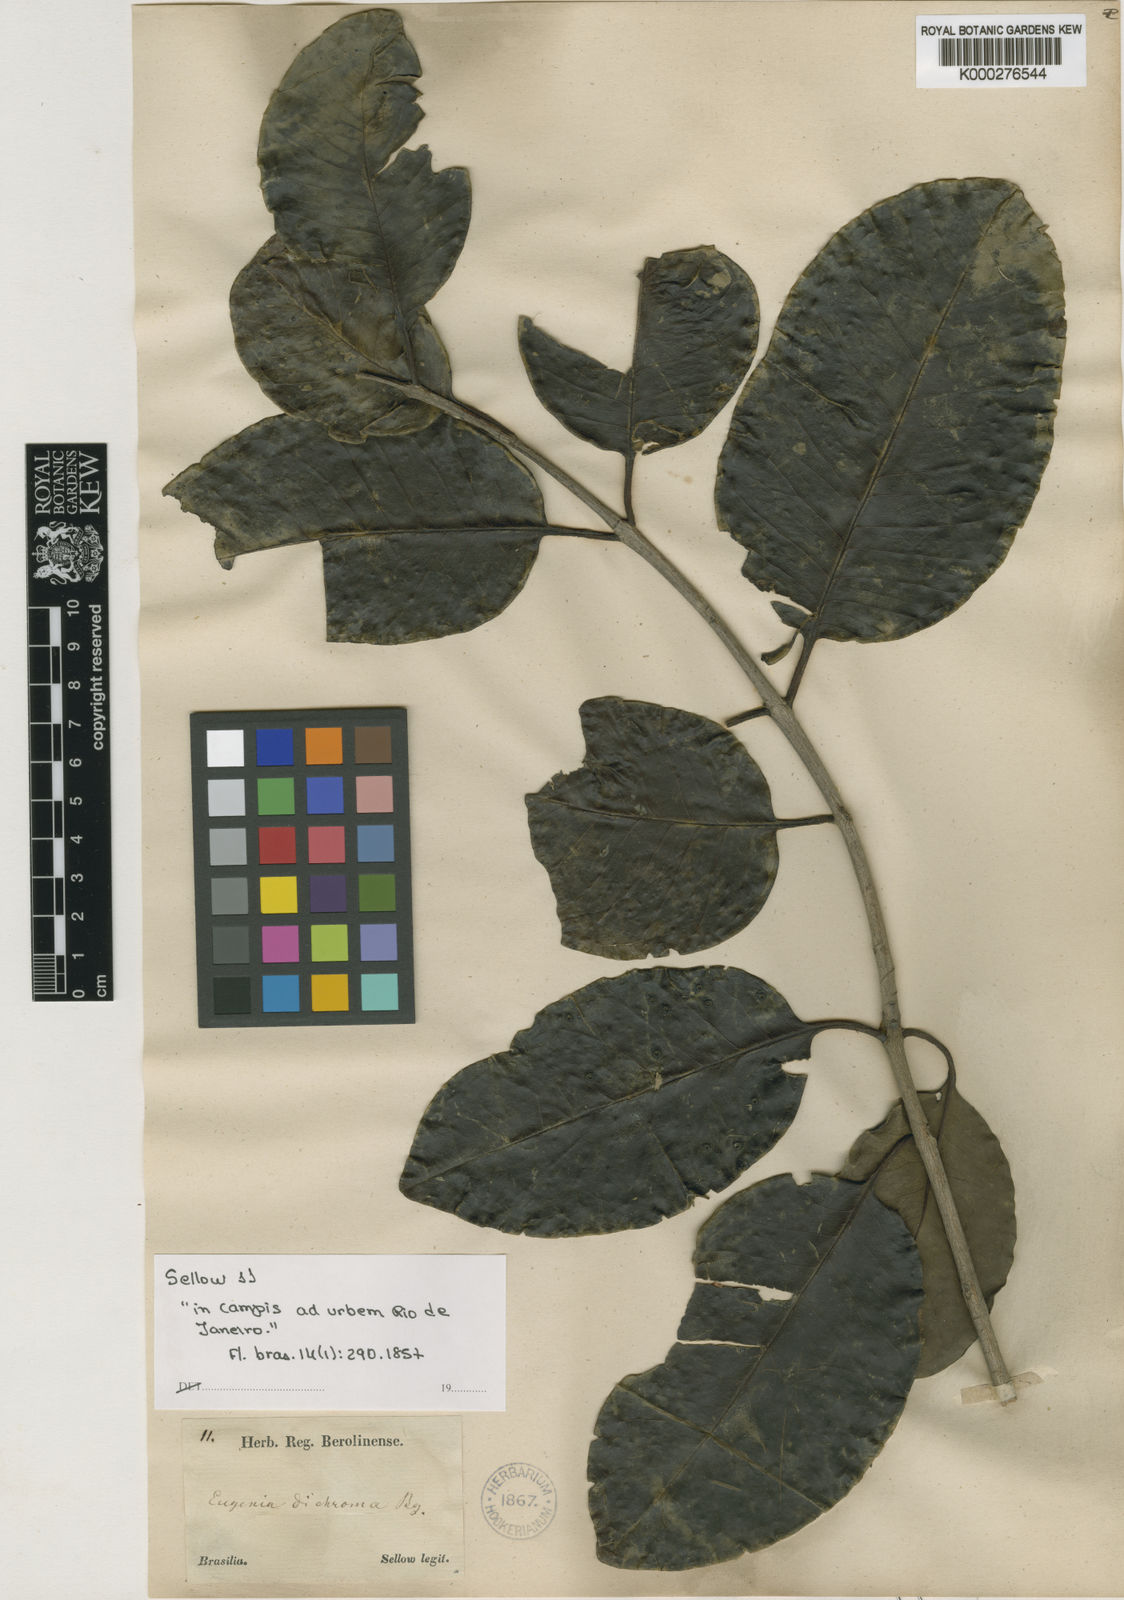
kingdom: Plantae
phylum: Tracheophyta
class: Magnoliopsida
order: Myrtales
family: Myrtaceae
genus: Eugenia
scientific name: Eugenia dichroma
